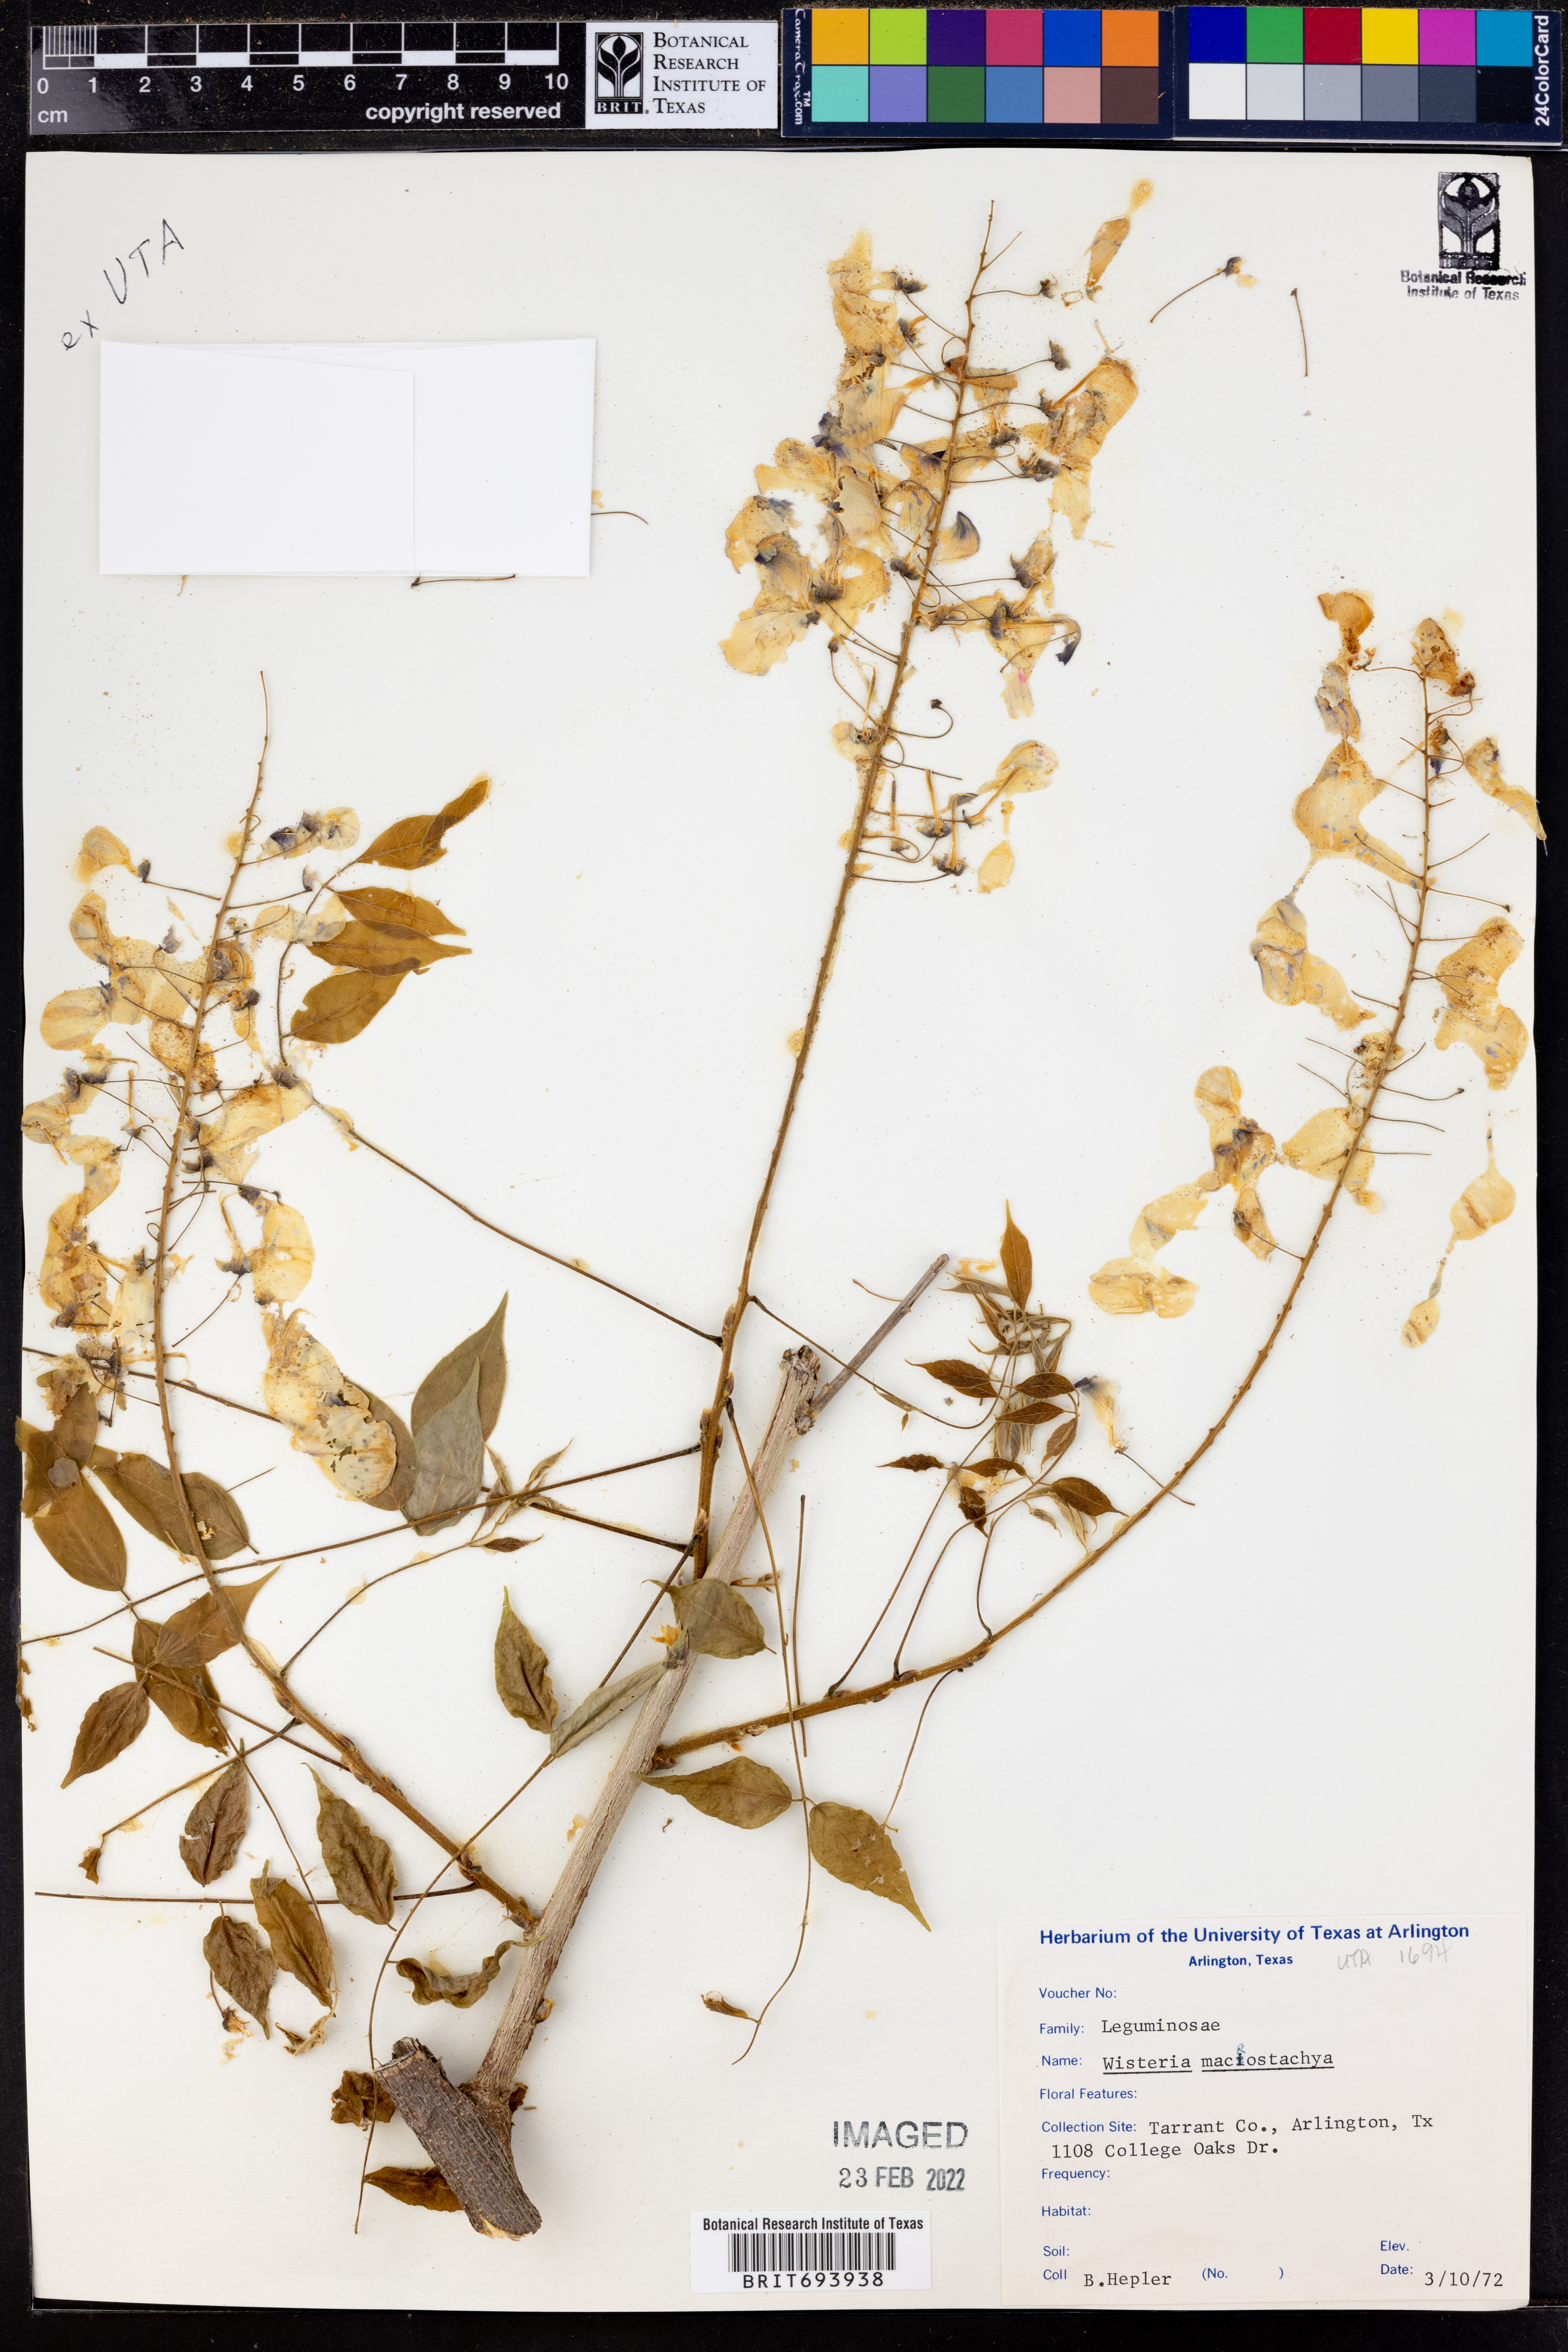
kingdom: Plantae
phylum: Tracheophyta
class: Magnoliopsida
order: Fabales
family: Fabaceae
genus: Wisteria
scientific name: Wisteria frutescens
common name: American wisteria
